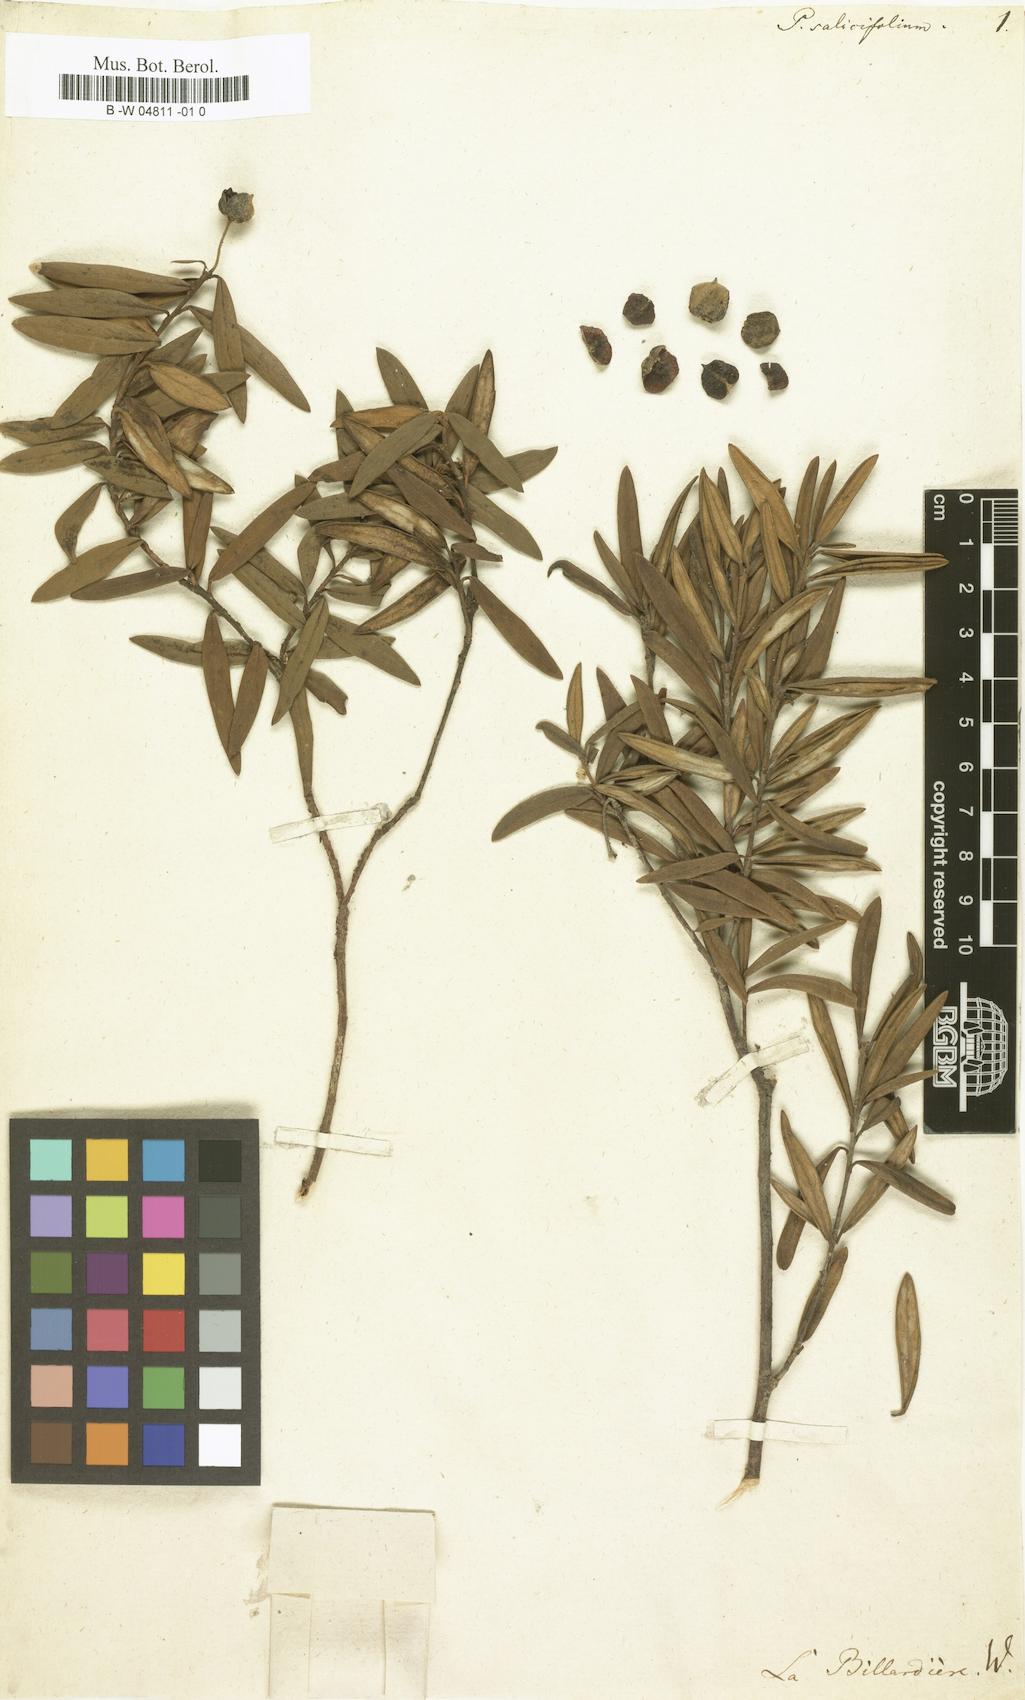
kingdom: Plantae
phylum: Tracheophyta
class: Magnoliopsida
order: Apiales
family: Pittosporaceae
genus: Pittosporum
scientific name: Pittosporum salicifolium
